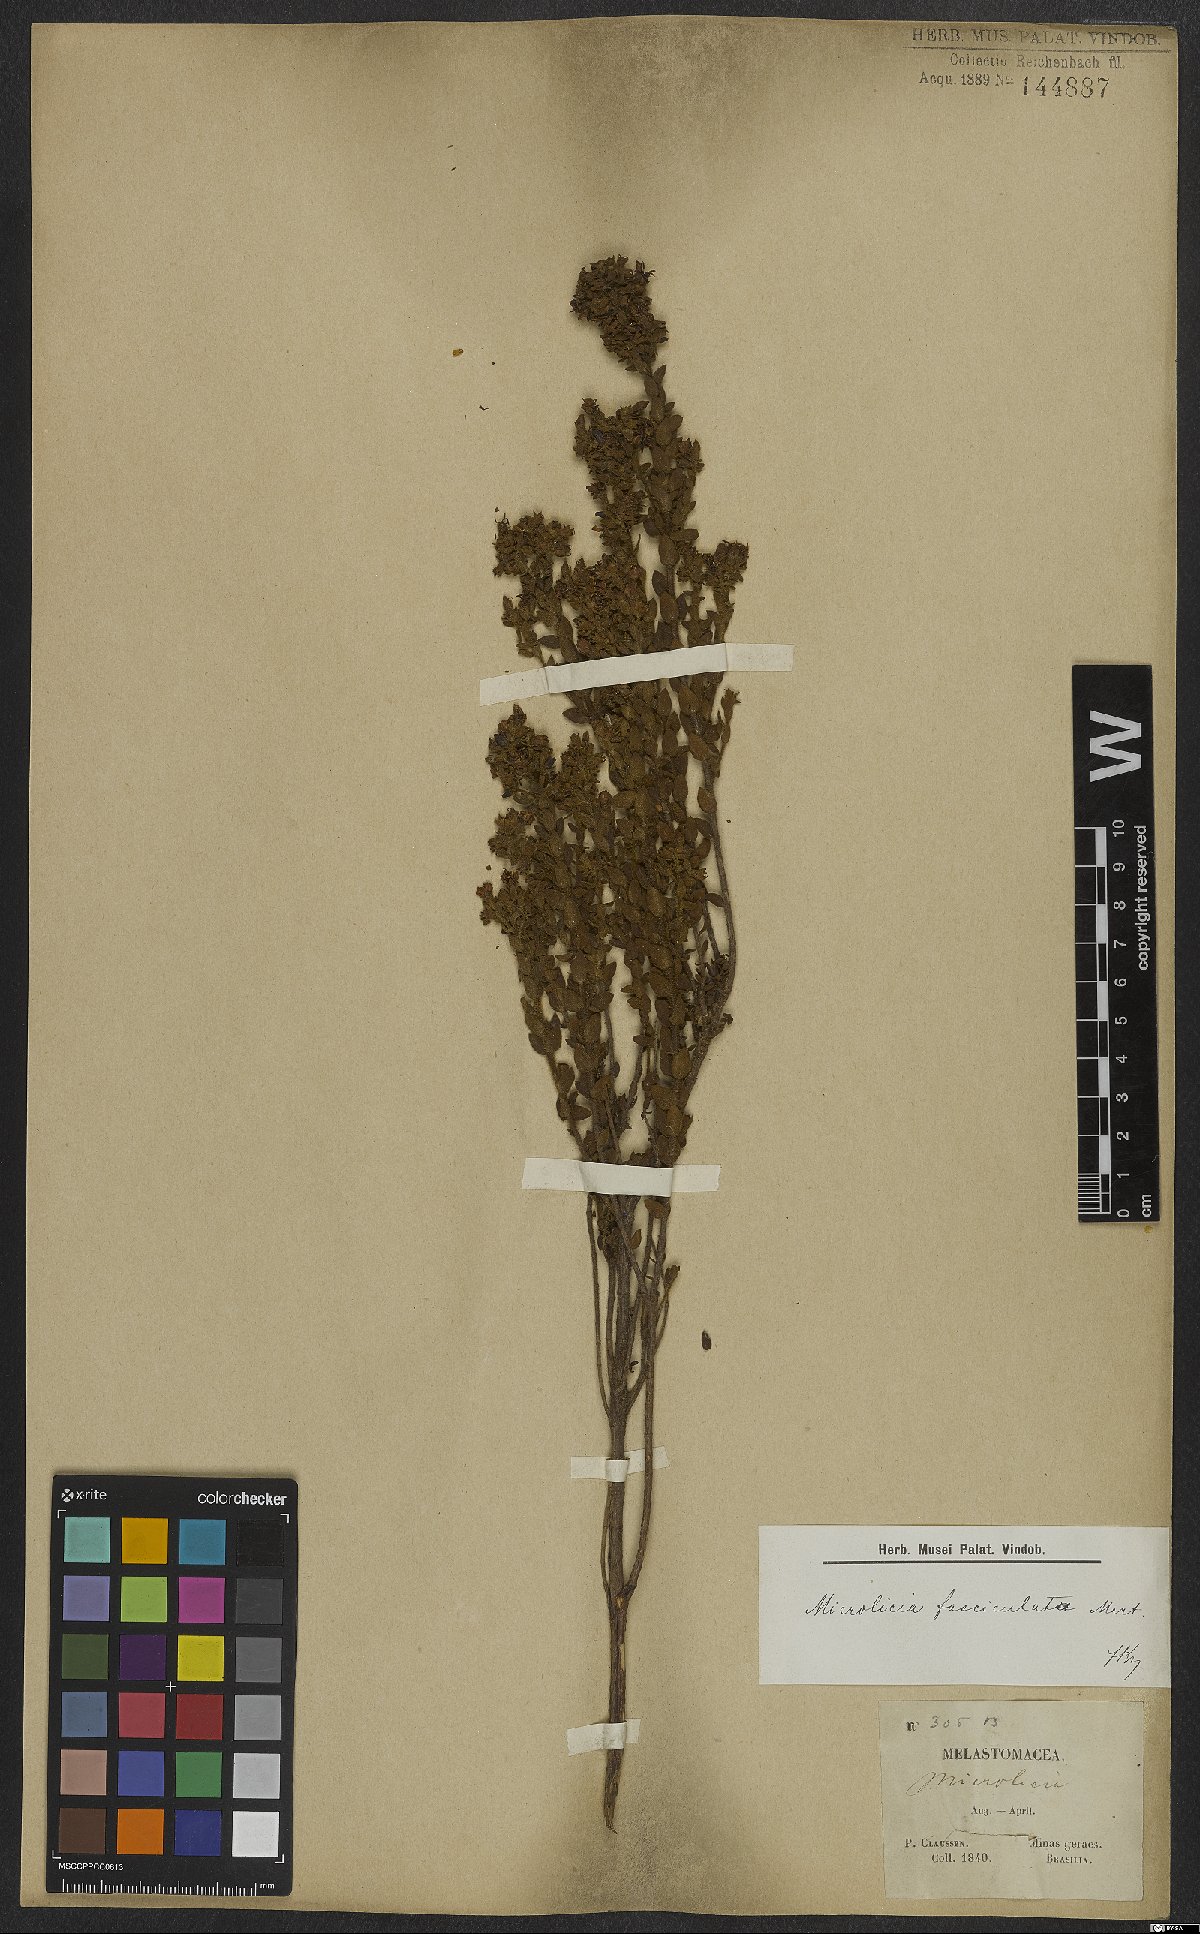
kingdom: Plantae
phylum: Tracheophyta
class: Magnoliopsida
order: Myrtales
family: Melastomataceae
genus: Microlicia
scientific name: Microlicia fasciculata
